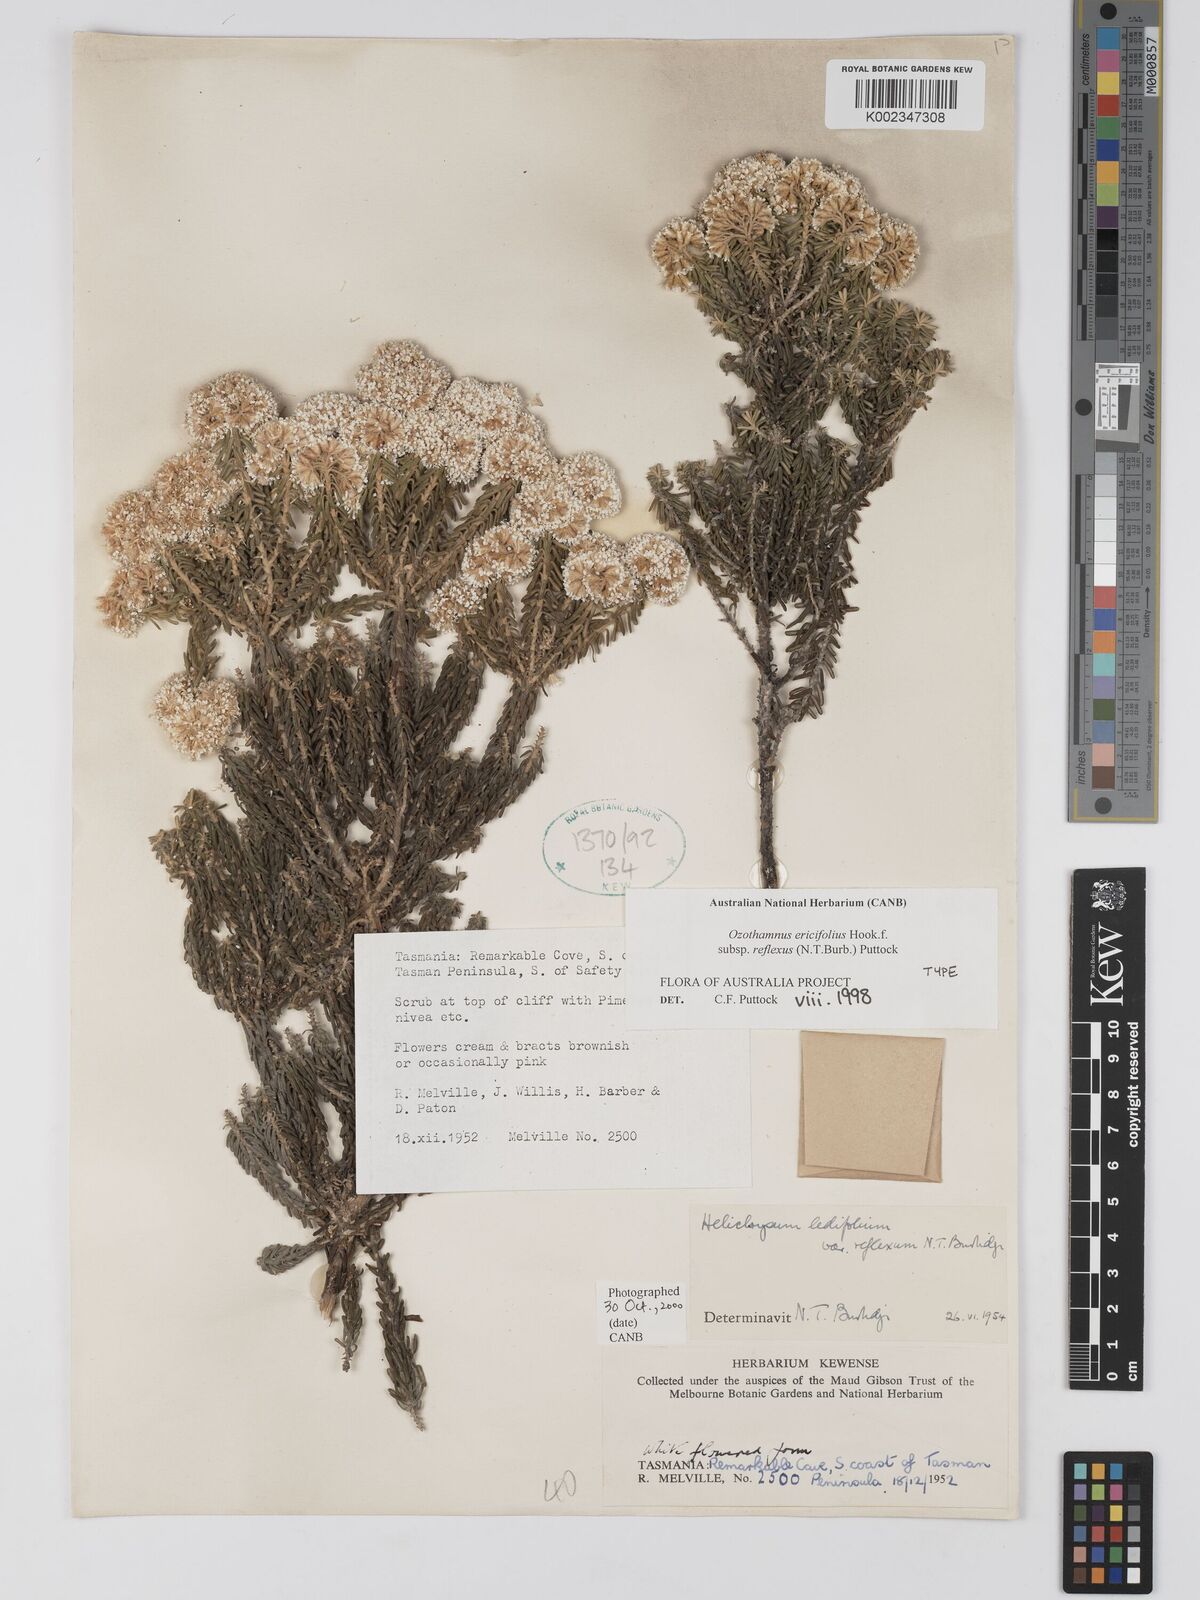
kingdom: Plantae
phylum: Tracheophyta
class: Magnoliopsida
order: Asterales
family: Asteraceae
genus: Ozothamnus
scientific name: Ozothamnus ericifolius
